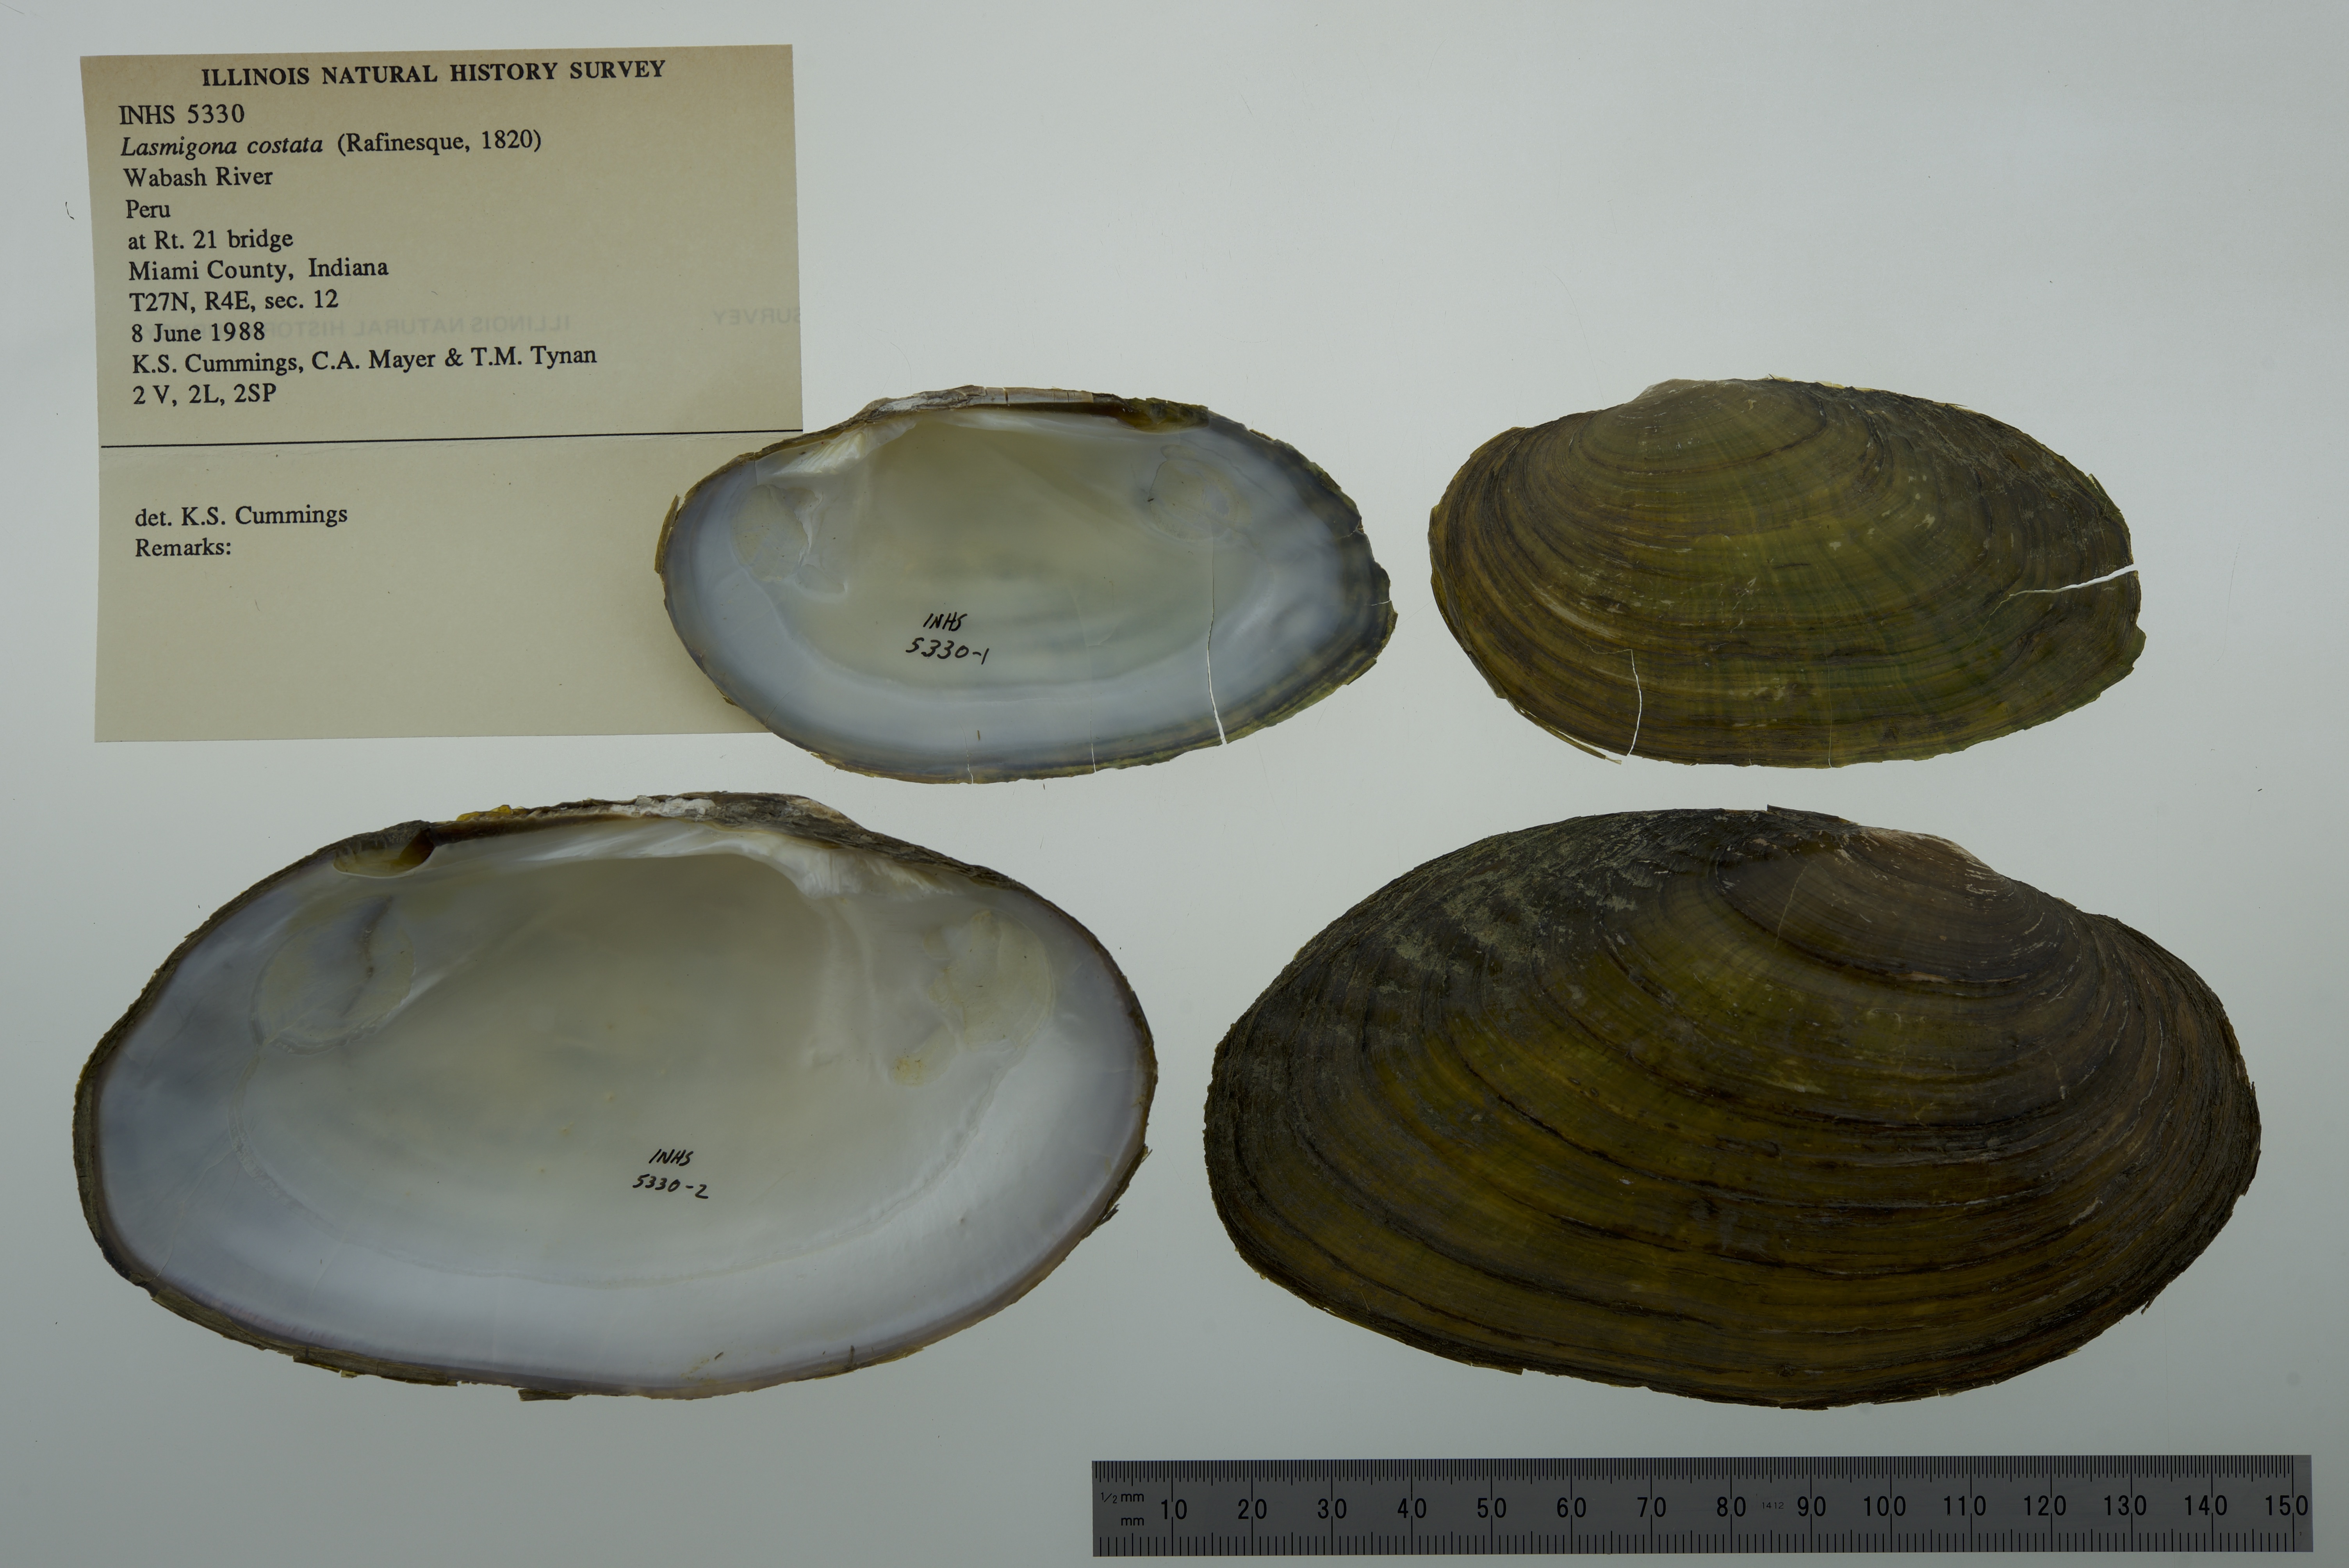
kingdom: Animalia
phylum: Mollusca
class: Bivalvia
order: Unionida
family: Unionidae
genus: Lasmigona
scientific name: Lasmigona costata
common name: Flutedshell
